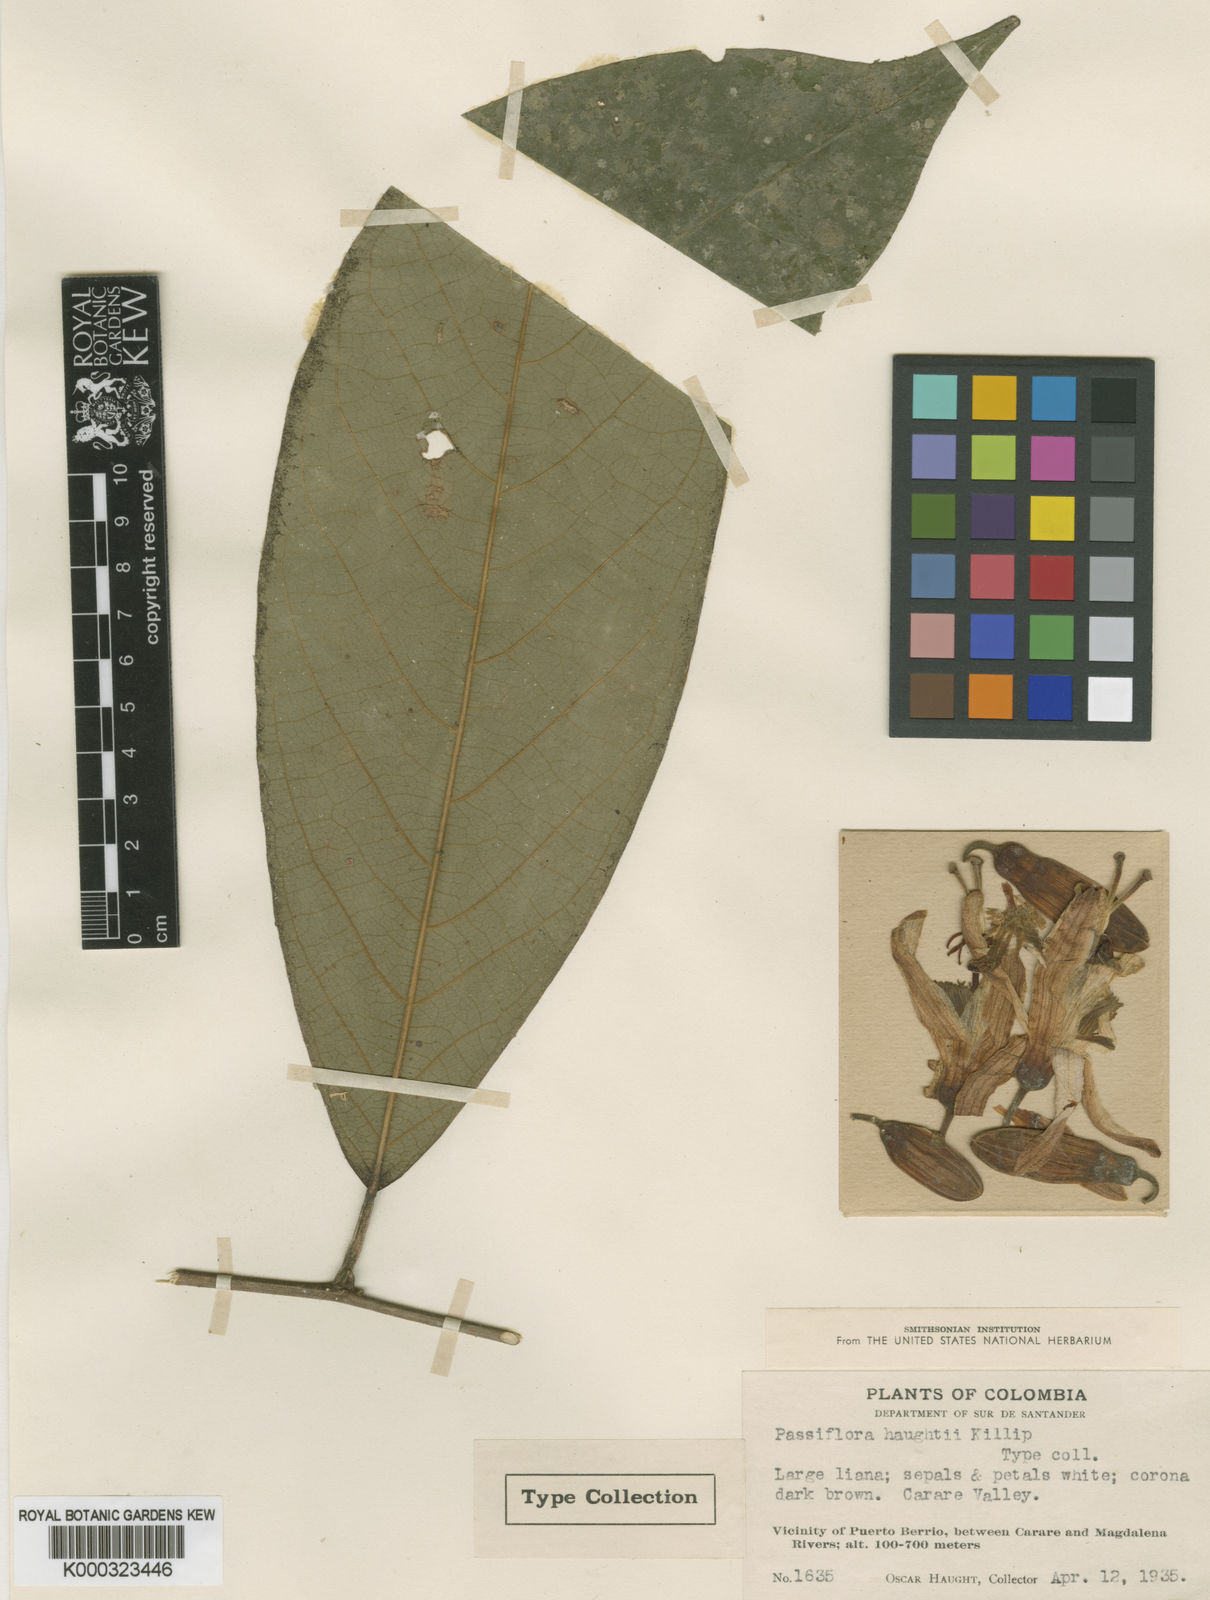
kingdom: Plantae
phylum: Tracheophyta
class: Magnoliopsida
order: Malpighiales
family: Passifloraceae
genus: Passiflora
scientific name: Passiflora haughtii
